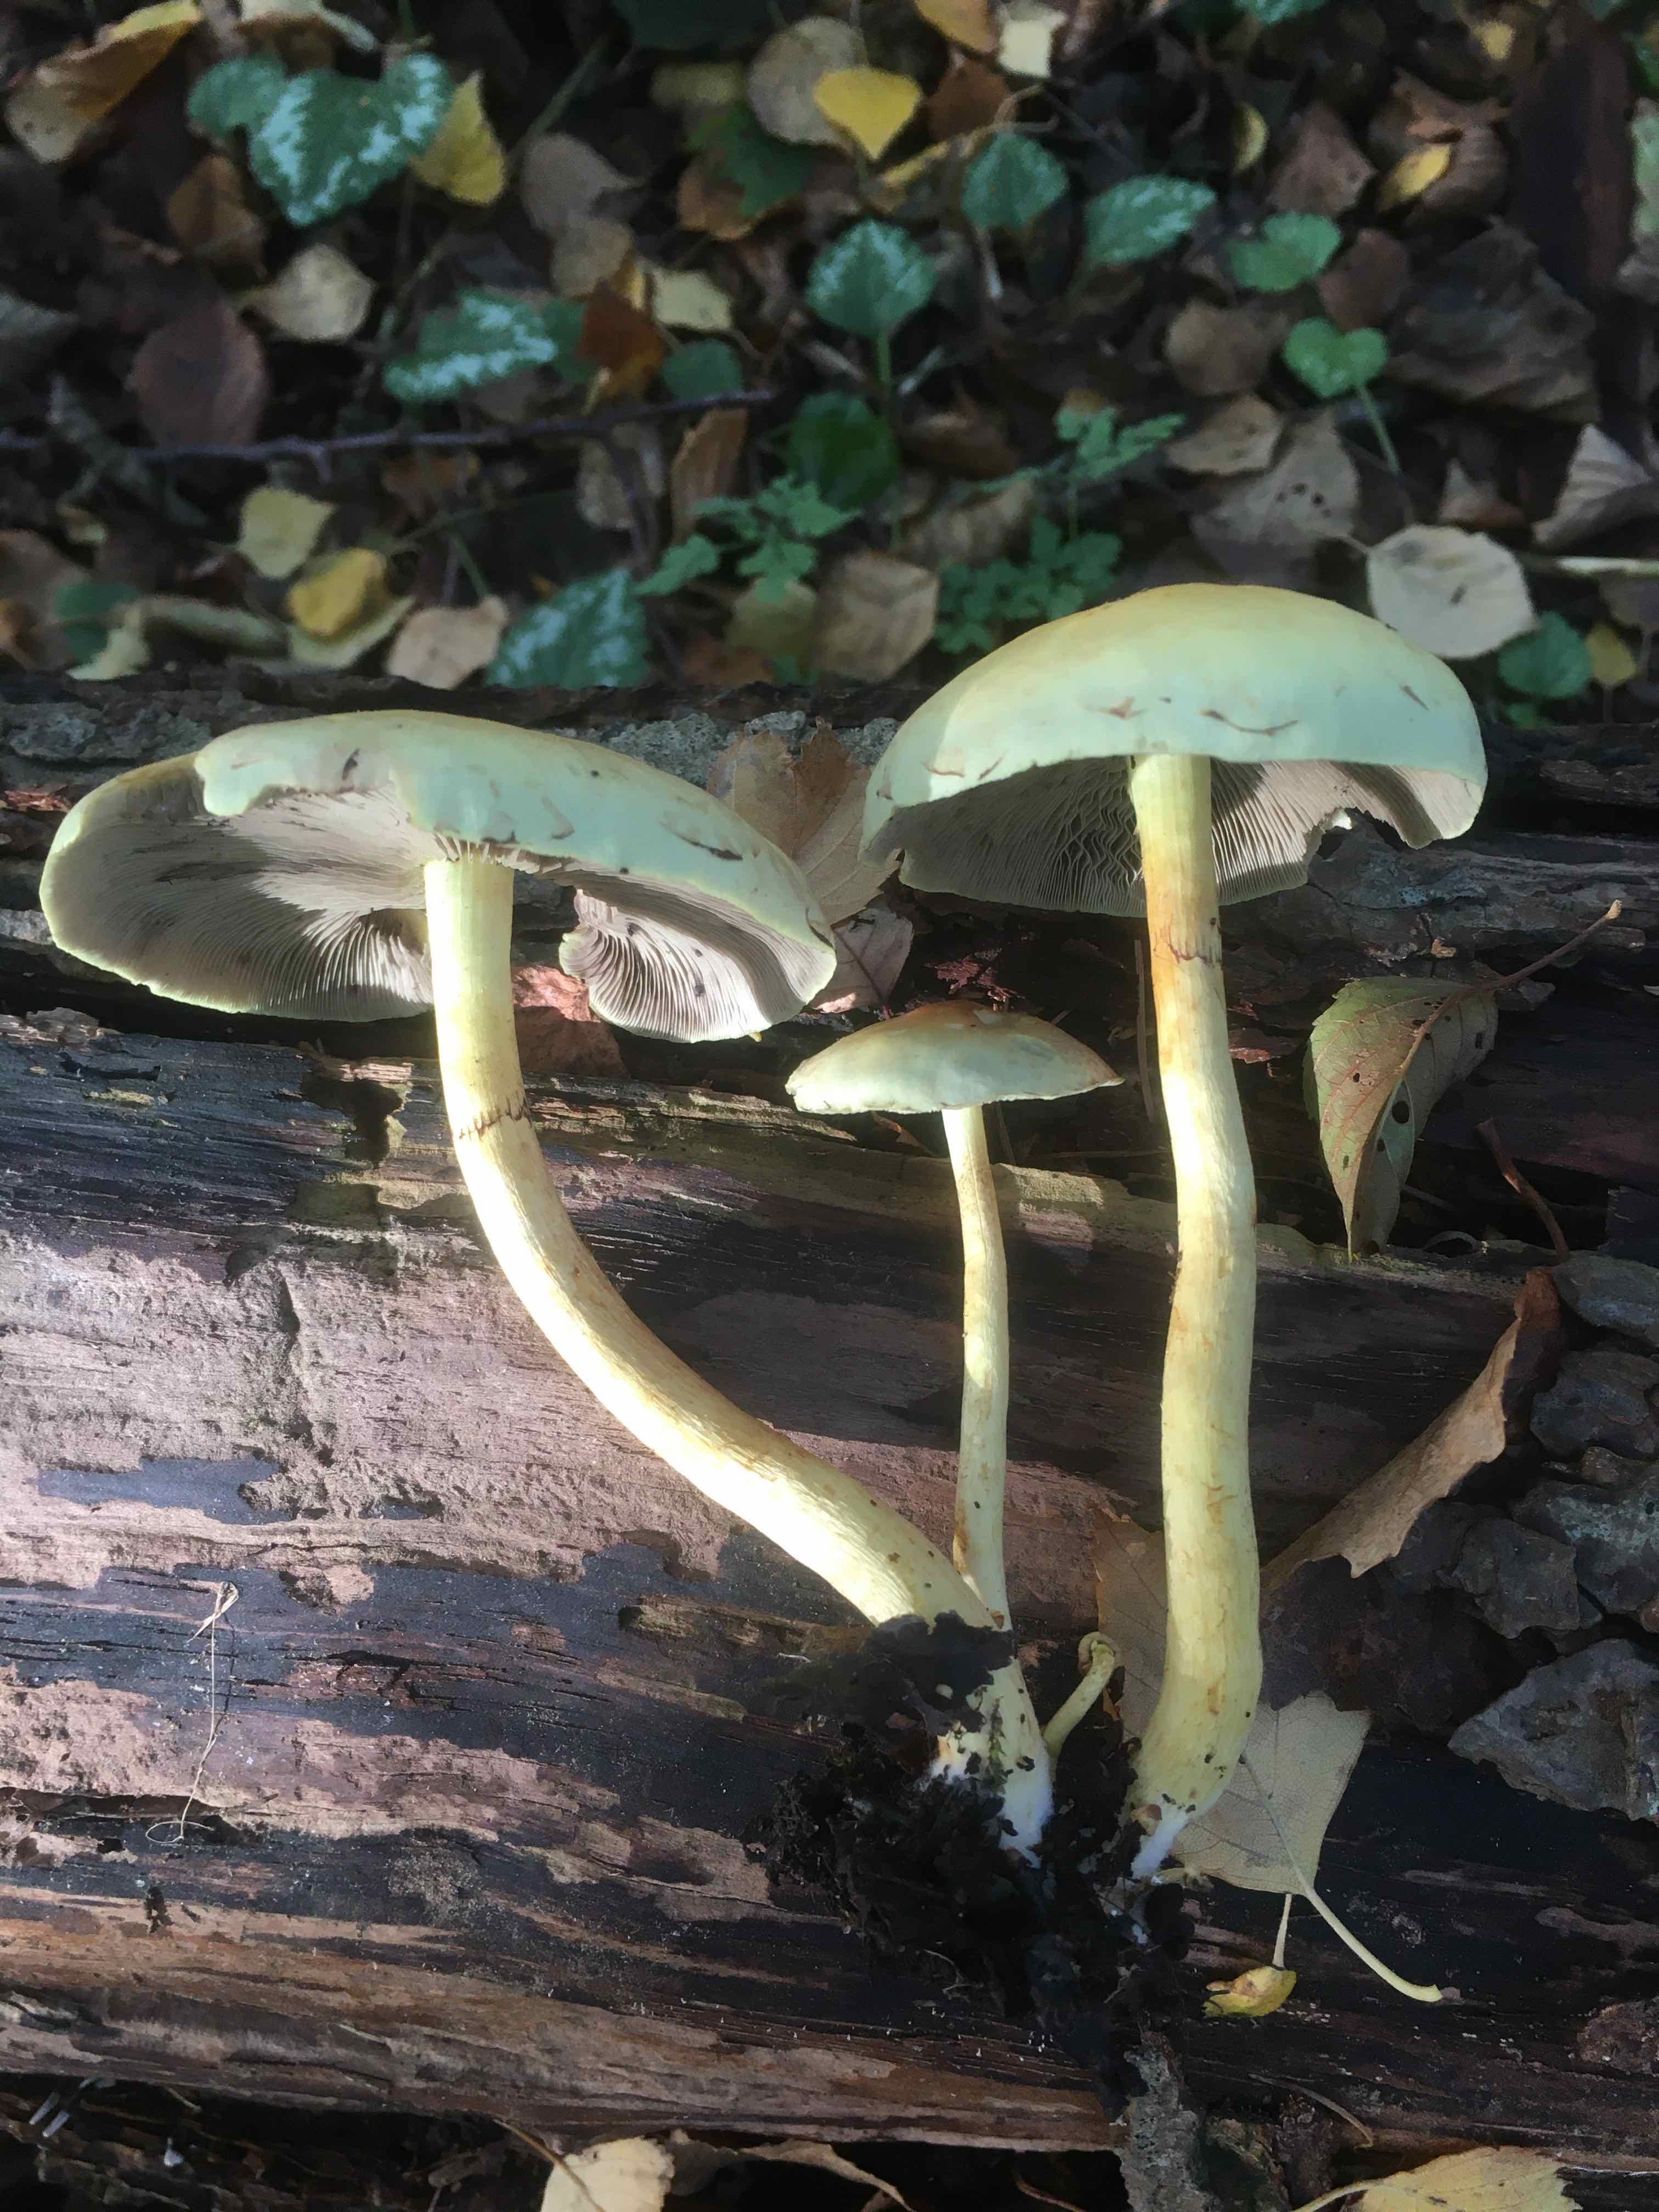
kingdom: Fungi
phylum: Basidiomycota
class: Agaricomycetes
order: Agaricales
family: Strophariaceae
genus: Hypholoma
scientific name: Hypholoma fasciculare
